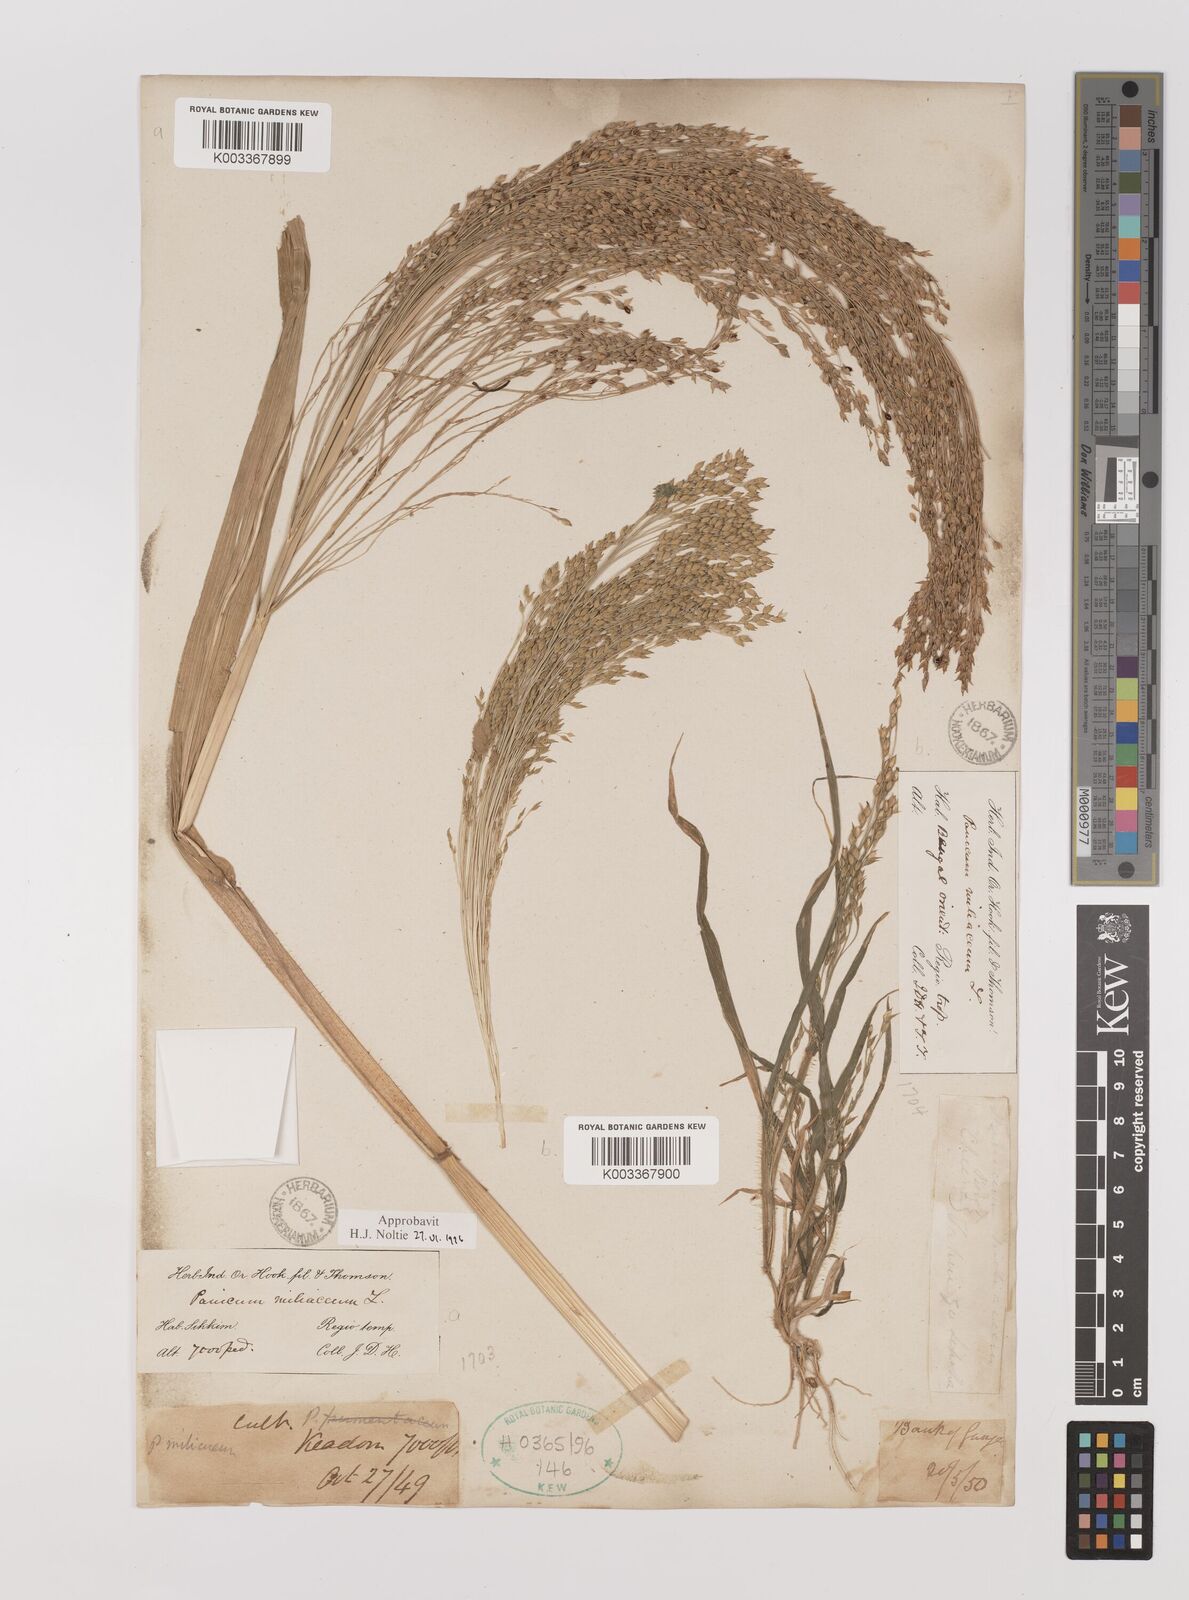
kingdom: Plantae
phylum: Tracheophyta
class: Liliopsida
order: Poales
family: Poaceae
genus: Panicum
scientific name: Panicum miliaceum
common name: Common millet
